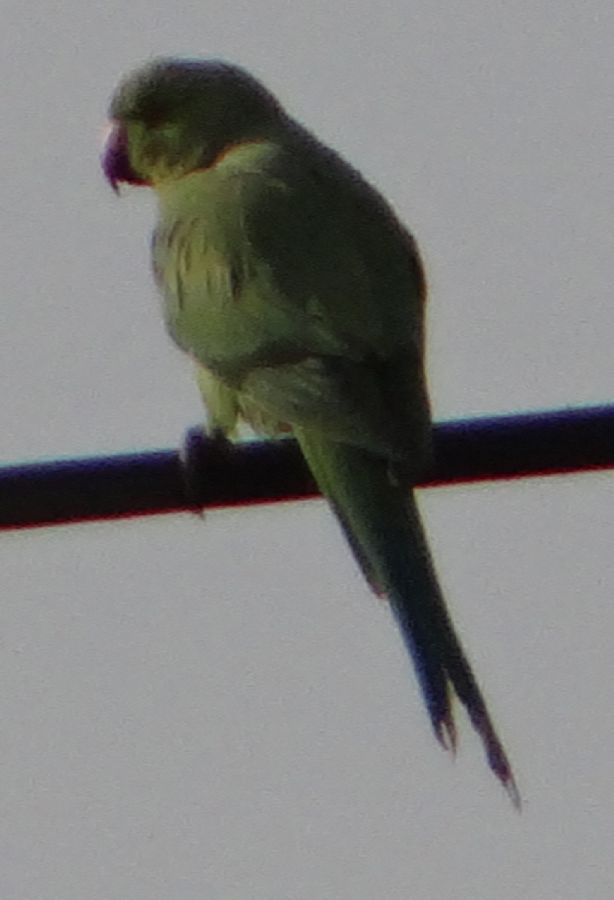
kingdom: Animalia
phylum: Chordata
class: Aves
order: Psittaciformes
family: Psittacidae
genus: Psittacula
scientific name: Psittacula krameri
